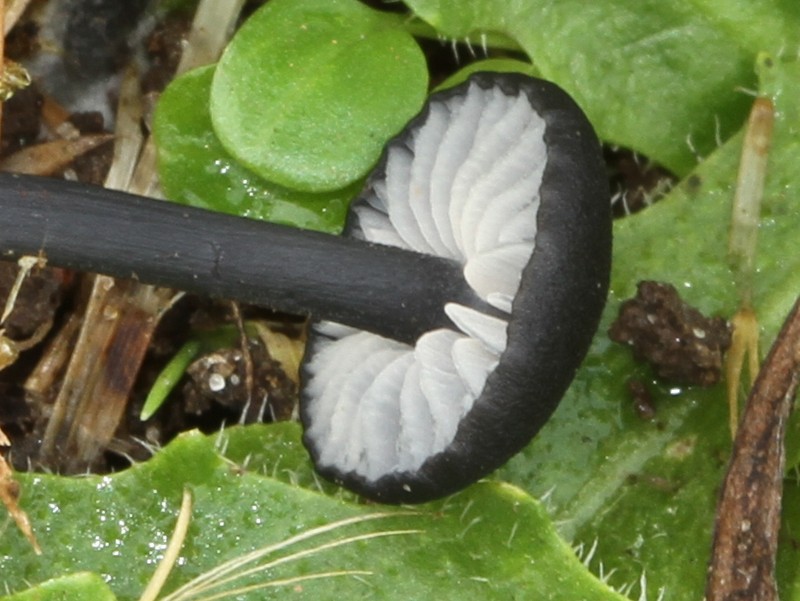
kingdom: Fungi
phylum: Basidiomycota
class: Agaricomycetes
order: Agaricales
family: Entolomataceae
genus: Entoloma
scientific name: Entoloma
